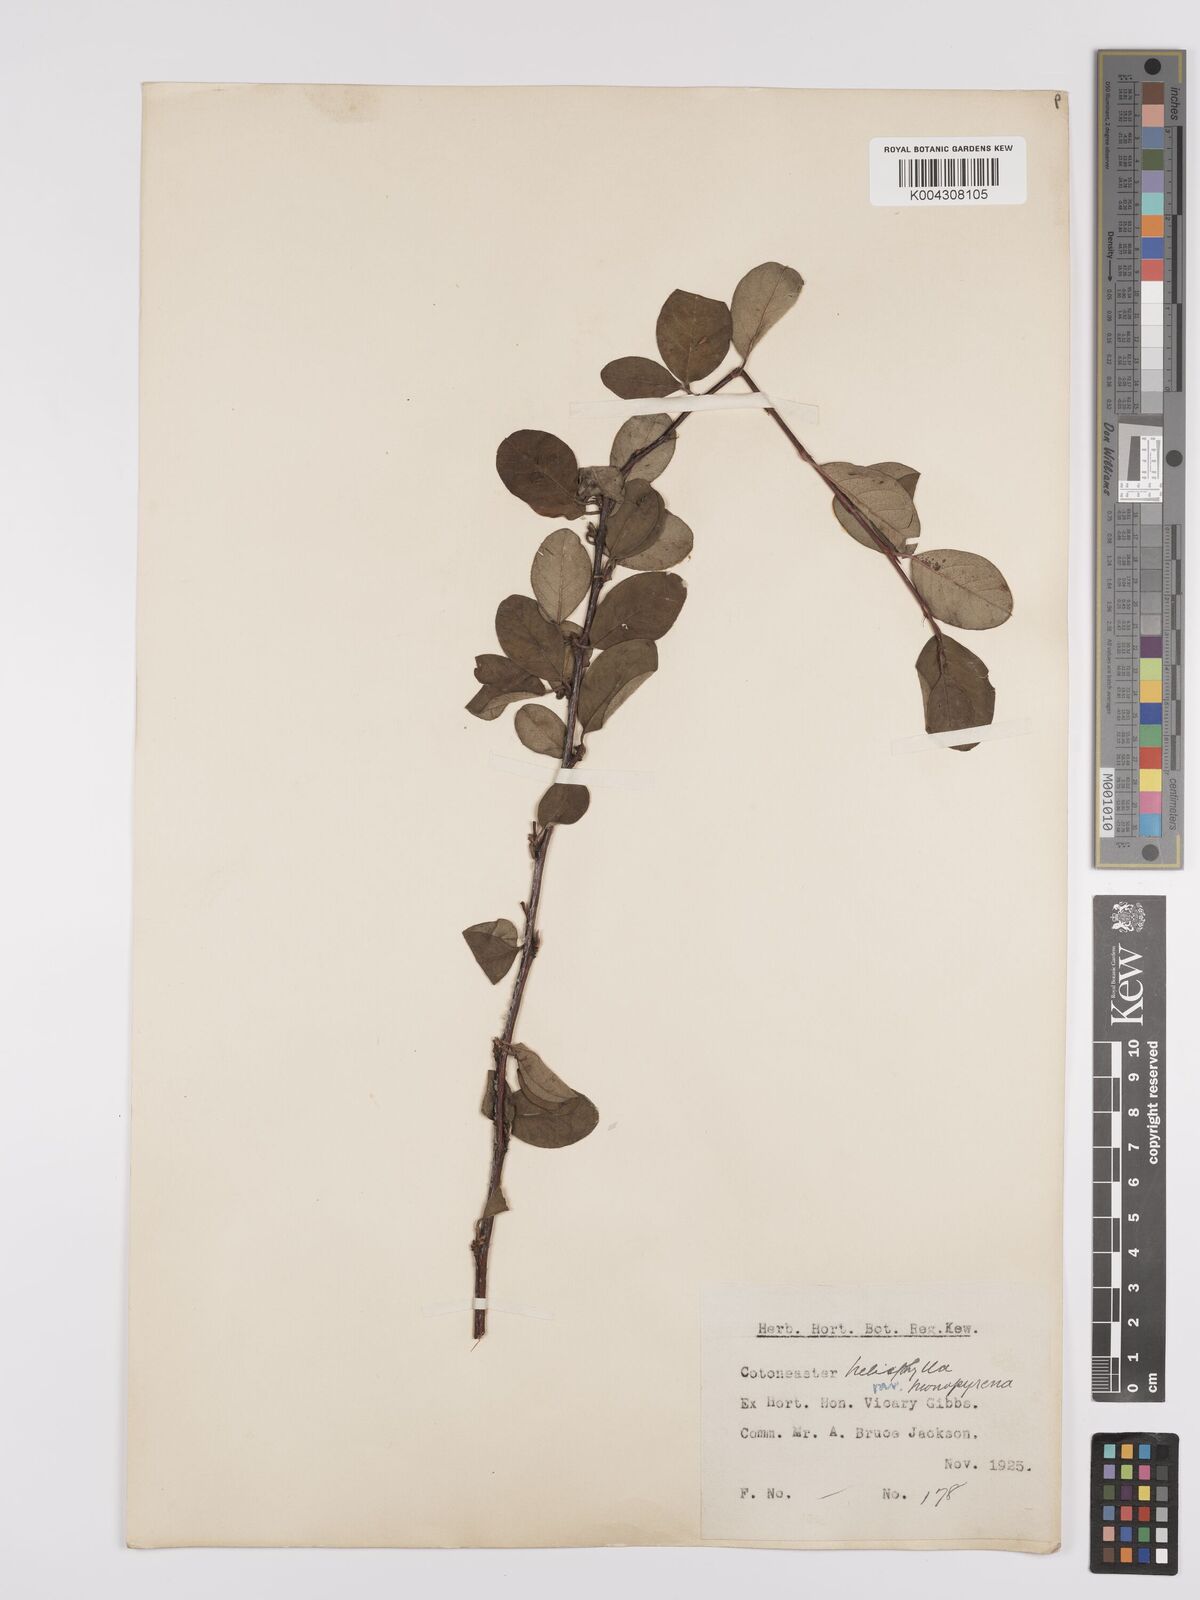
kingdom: Plantae
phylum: Tracheophyta
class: Magnoliopsida
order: Rosales
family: Rosaceae
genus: Cotoneaster
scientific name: Cotoneaster hebephyllus
